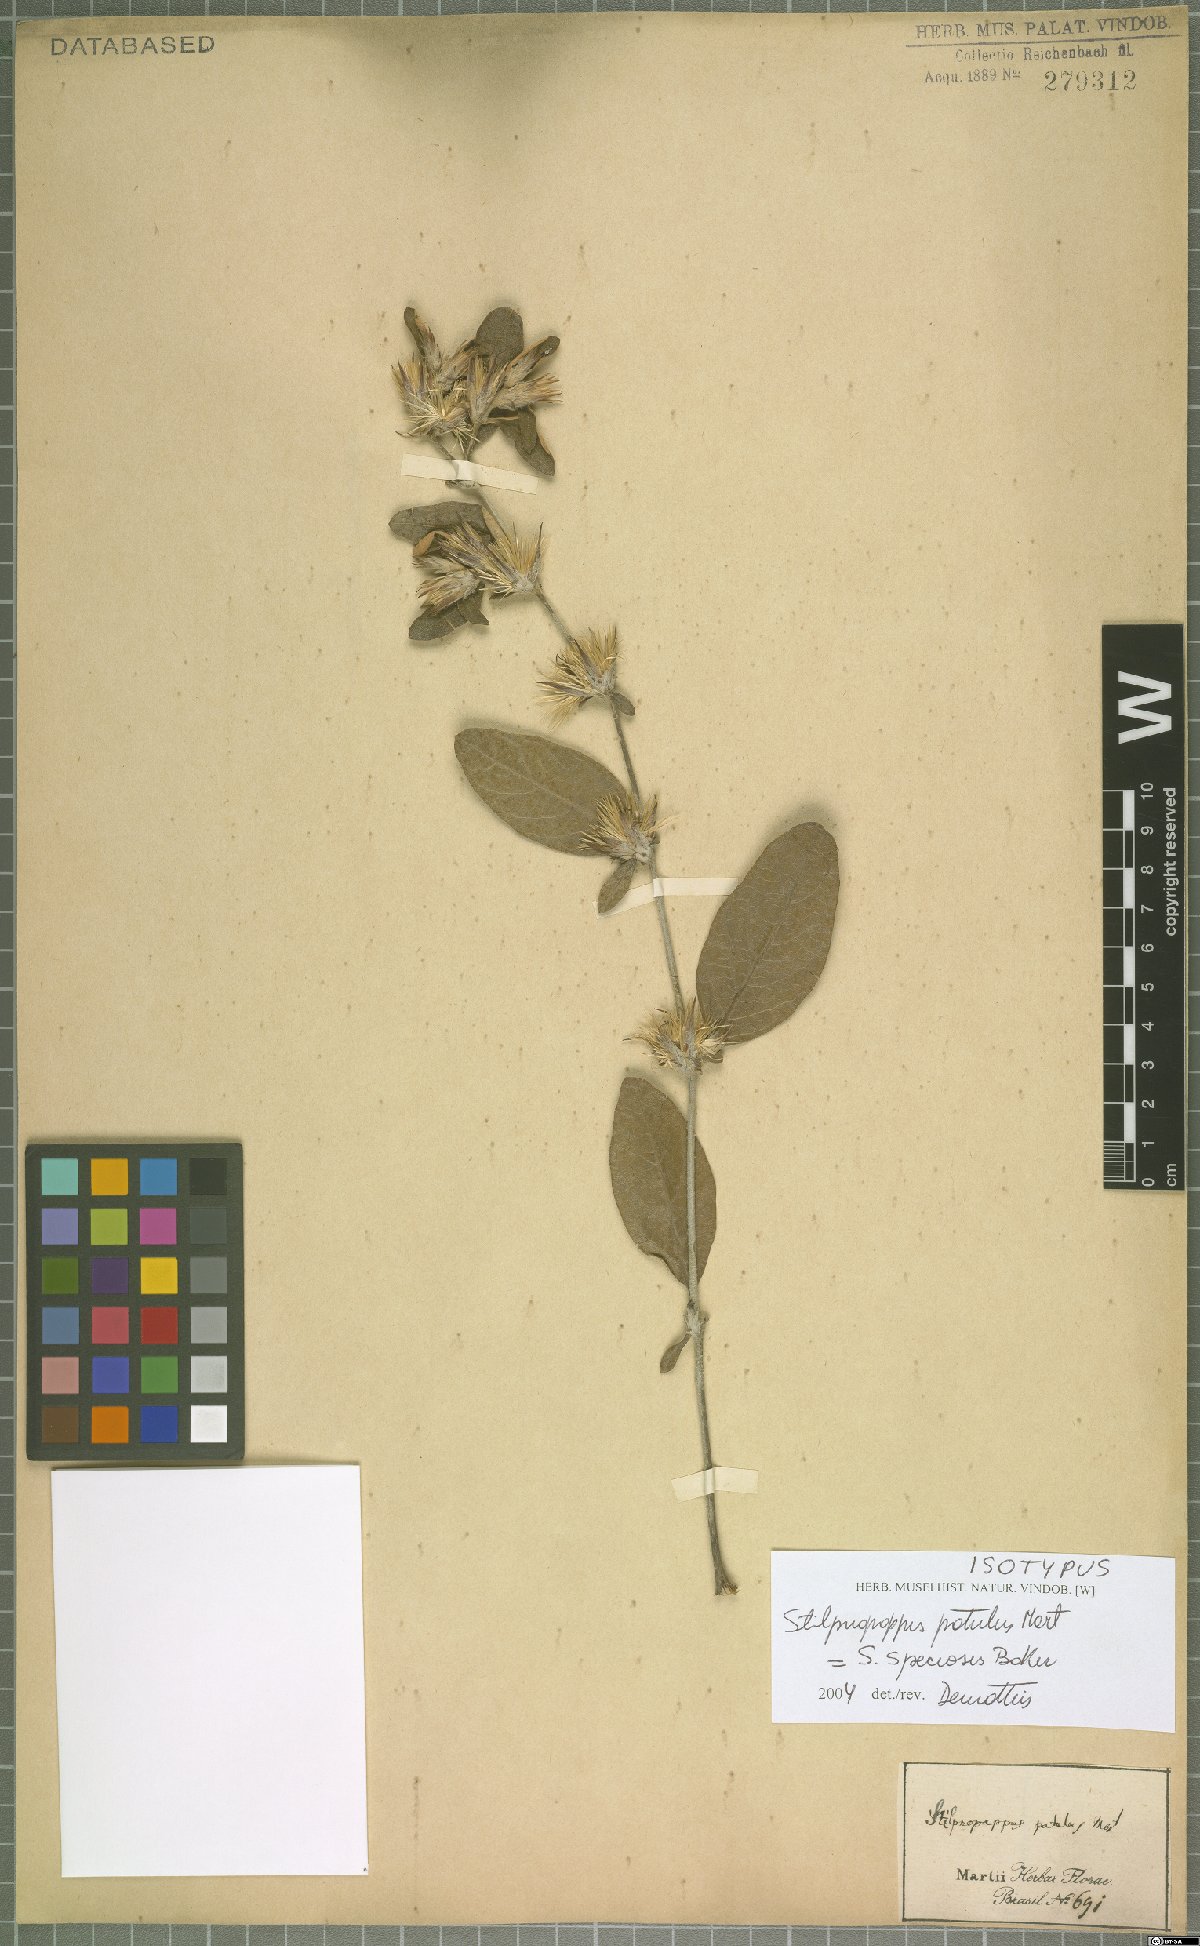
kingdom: Plantae
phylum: Tracheophyta
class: Magnoliopsida
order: Asterales
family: Asteraceae
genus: Stilpnopappus
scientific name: Stilpnopappus speciosus
